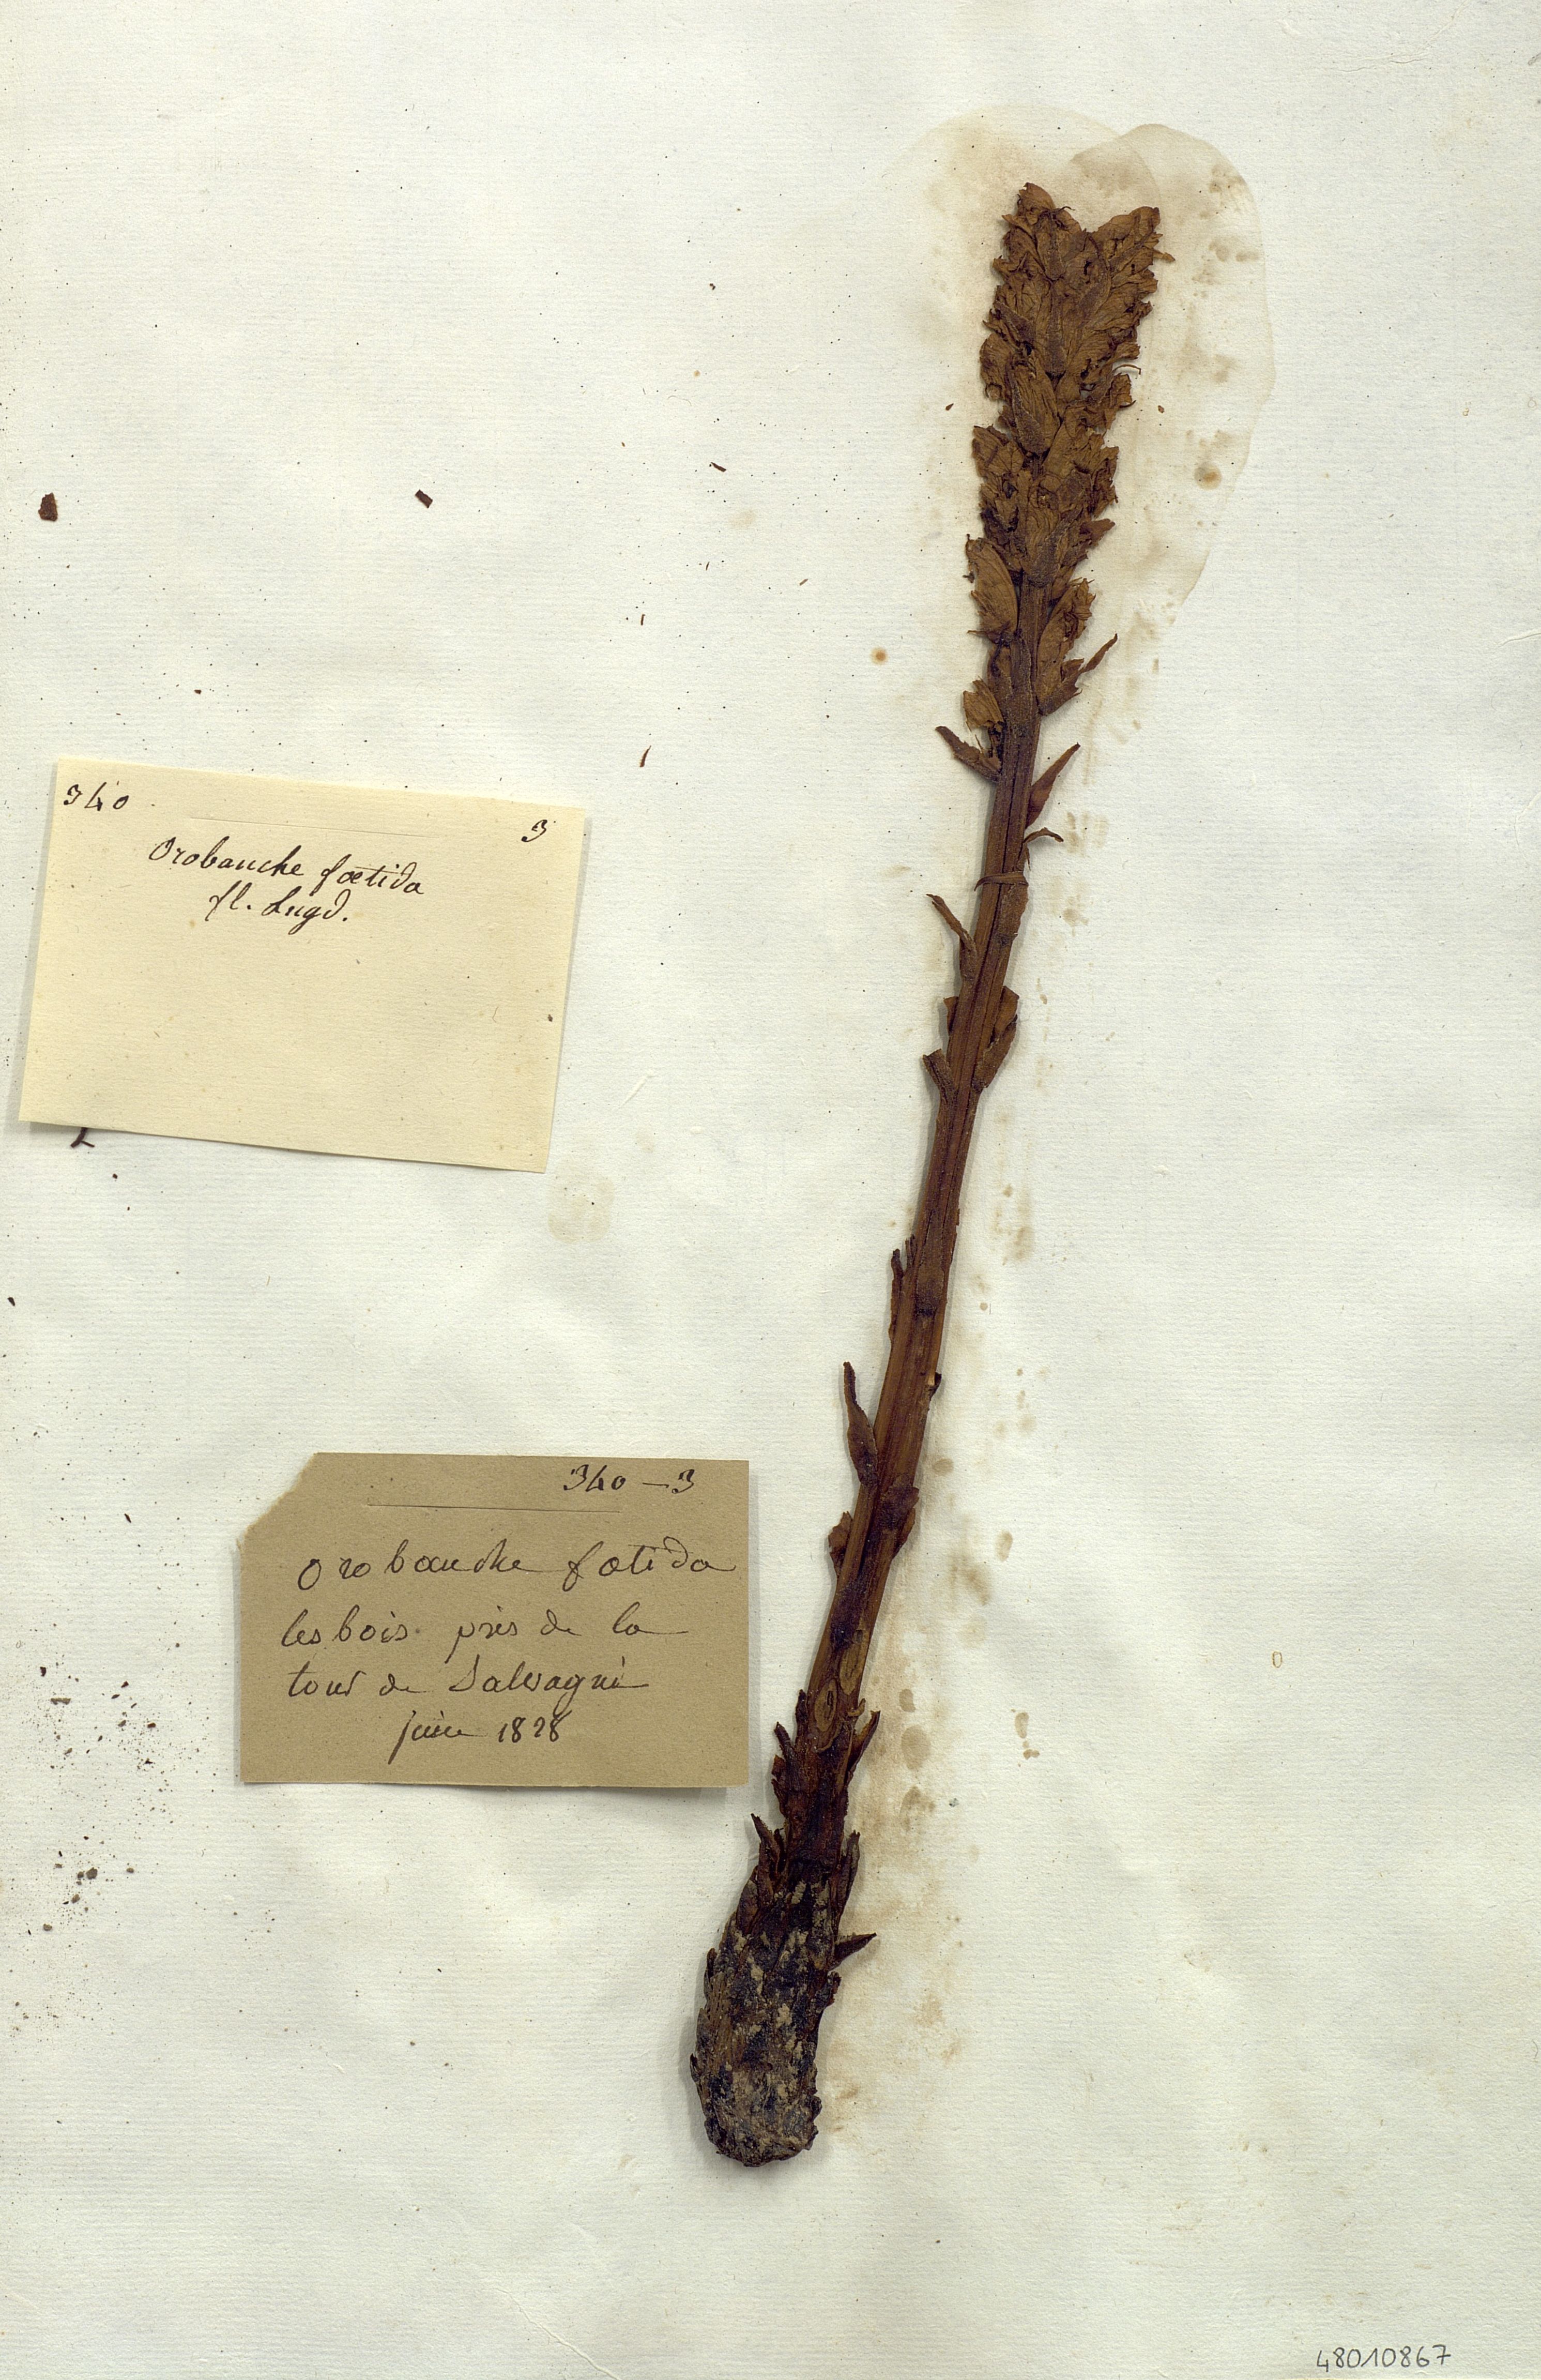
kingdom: Plantae
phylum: Tracheophyta
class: Magnoliopsida
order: Lamiales
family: Orobanchaceae
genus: Orobanche
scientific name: Orobanche foetida
